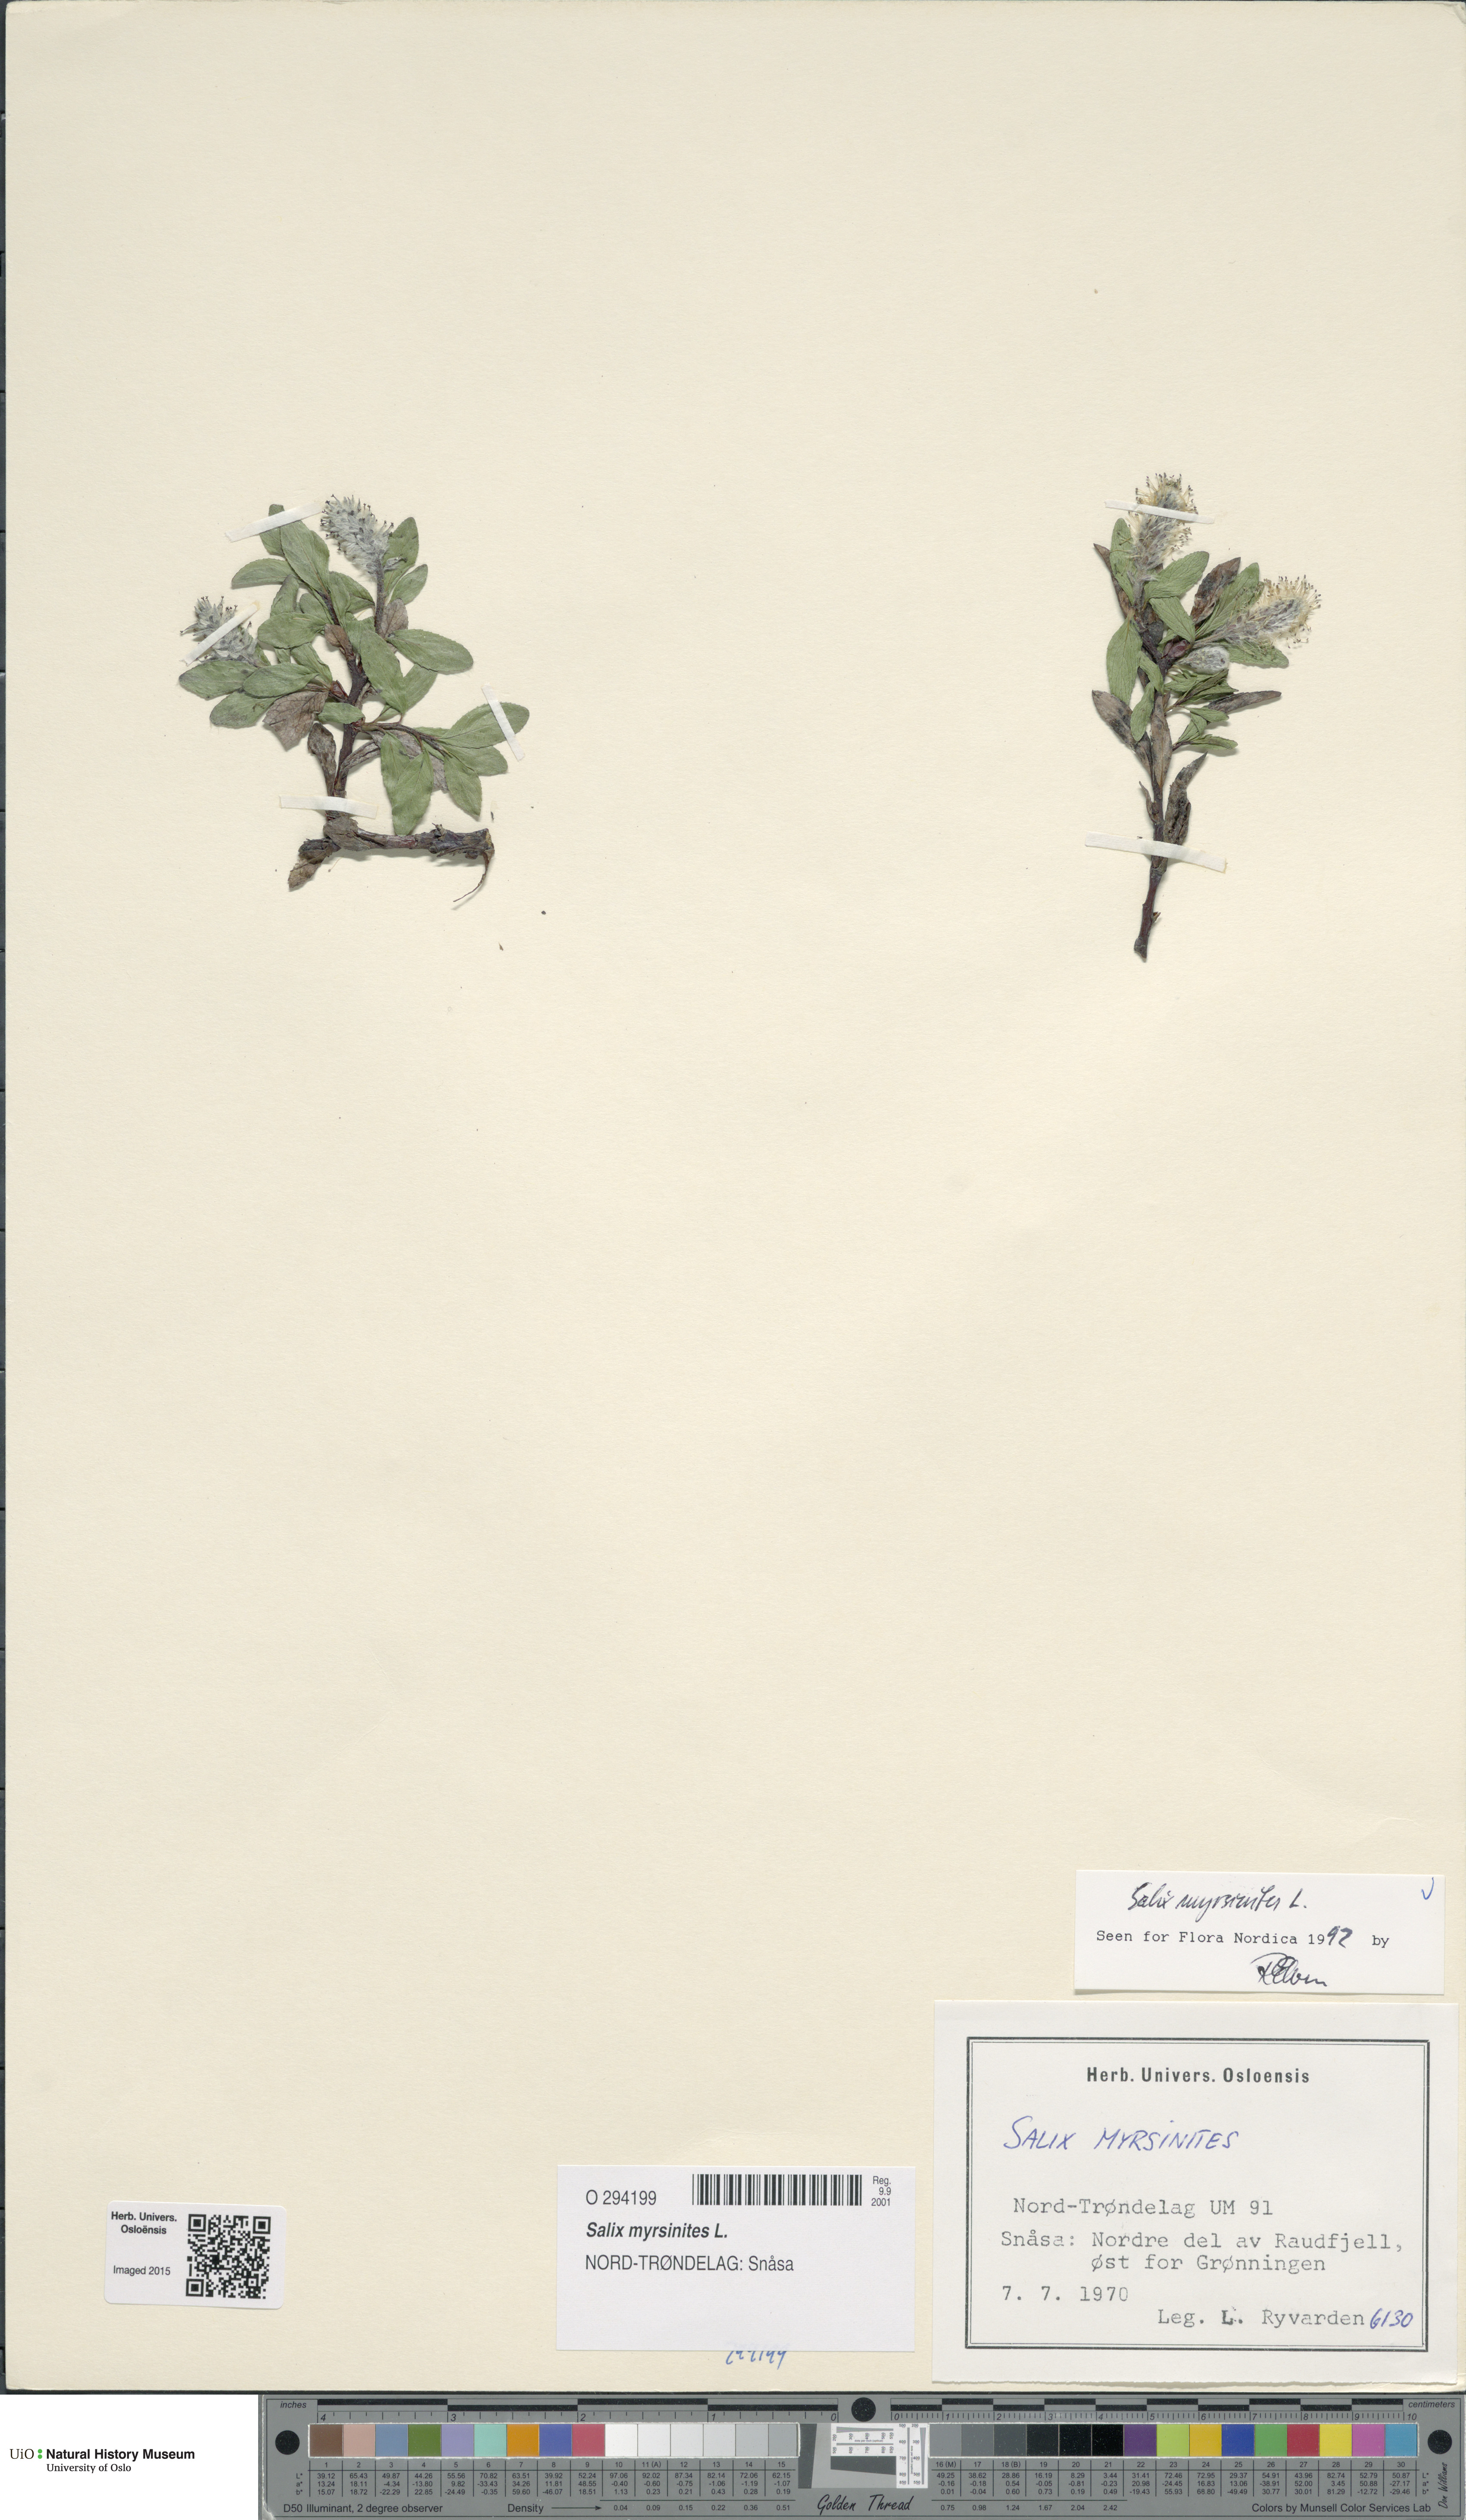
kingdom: Plantae
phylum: Tracheophyta
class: Magnoliopsida
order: Malpighiales
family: Salicaceae
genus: Salix
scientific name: Salix myrsinites
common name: Myrtle willow
